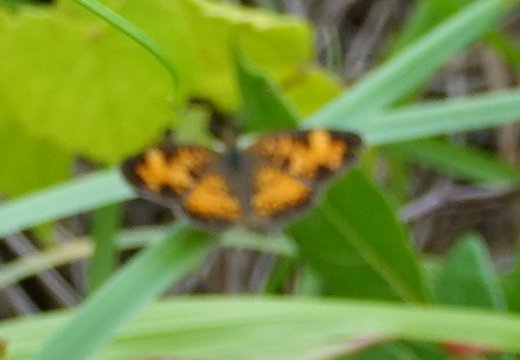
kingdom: Animalia
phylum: Arthropoda
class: Insecta
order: Lepidoptera
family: Nymphalidae
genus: Phyciodes
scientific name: Phyciodes tharos
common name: Pearl Crescent
